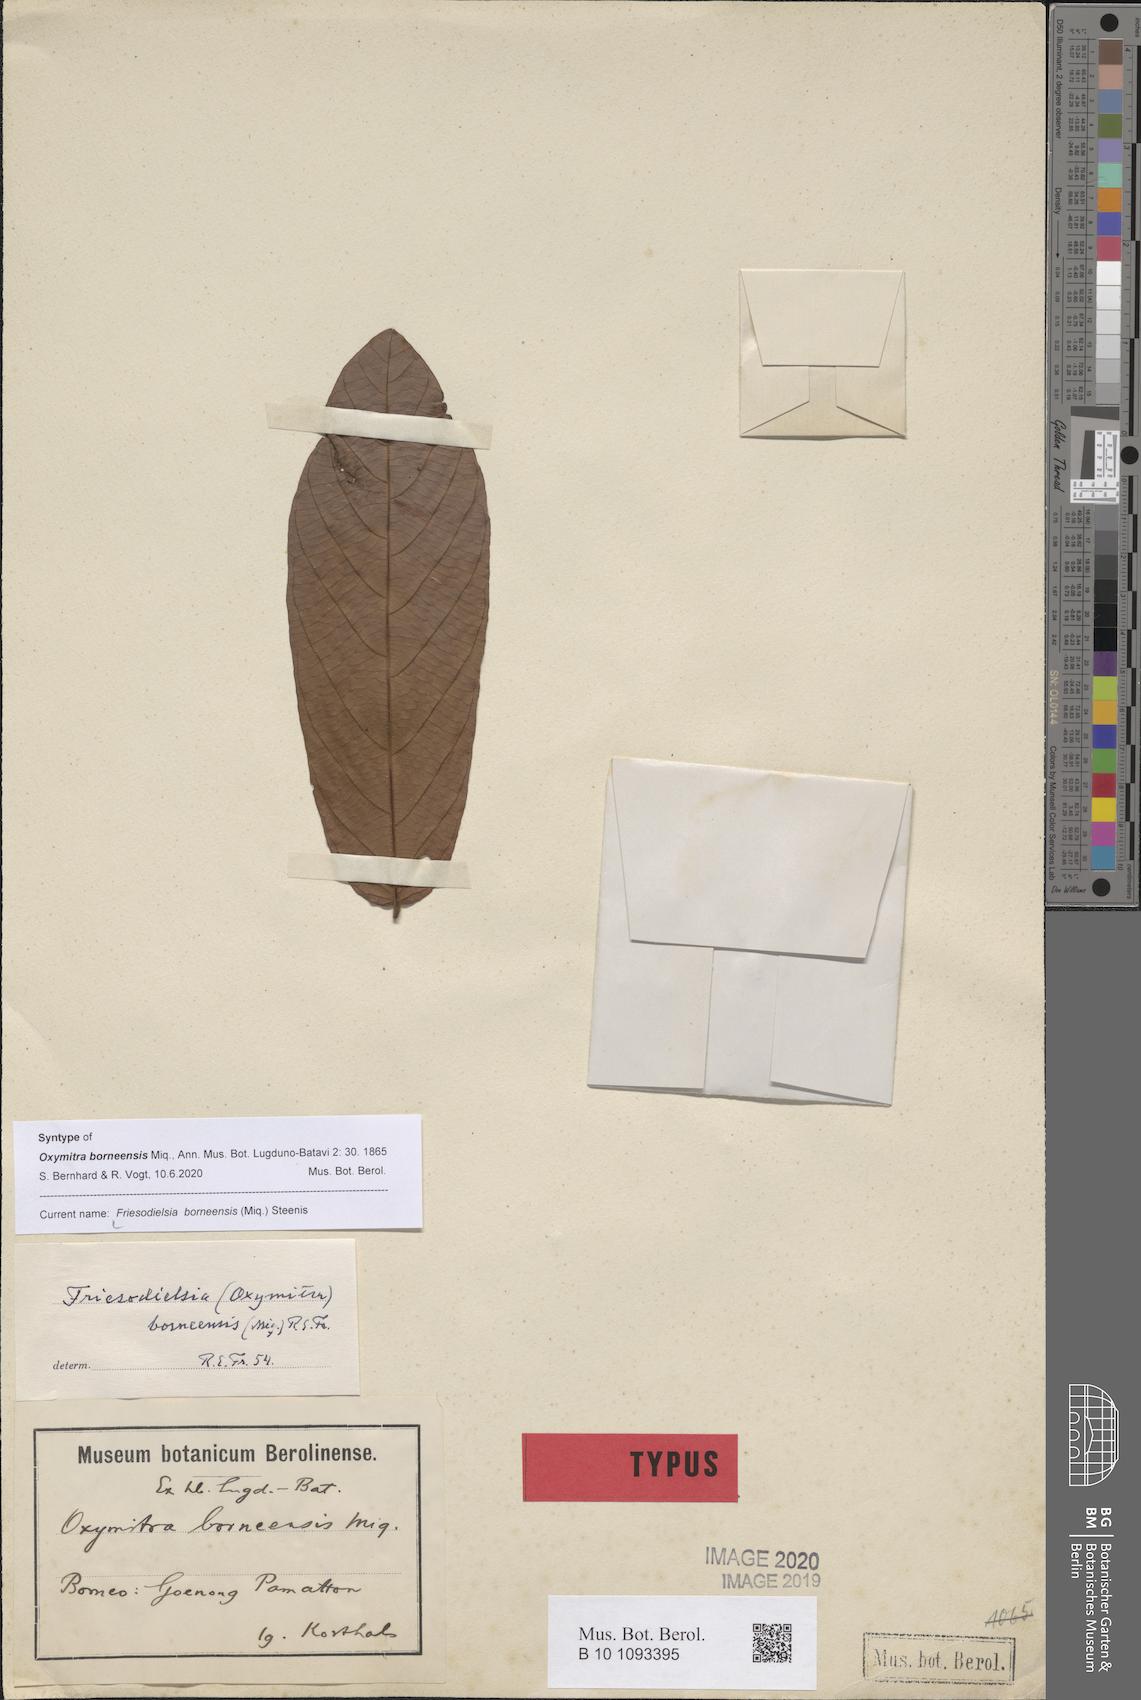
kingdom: Plantae
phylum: Tracheophyta
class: Magnoliopsida
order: Magnoliales
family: Annonaceae
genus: Friesodielsia
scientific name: Friesodielsia borneensis
